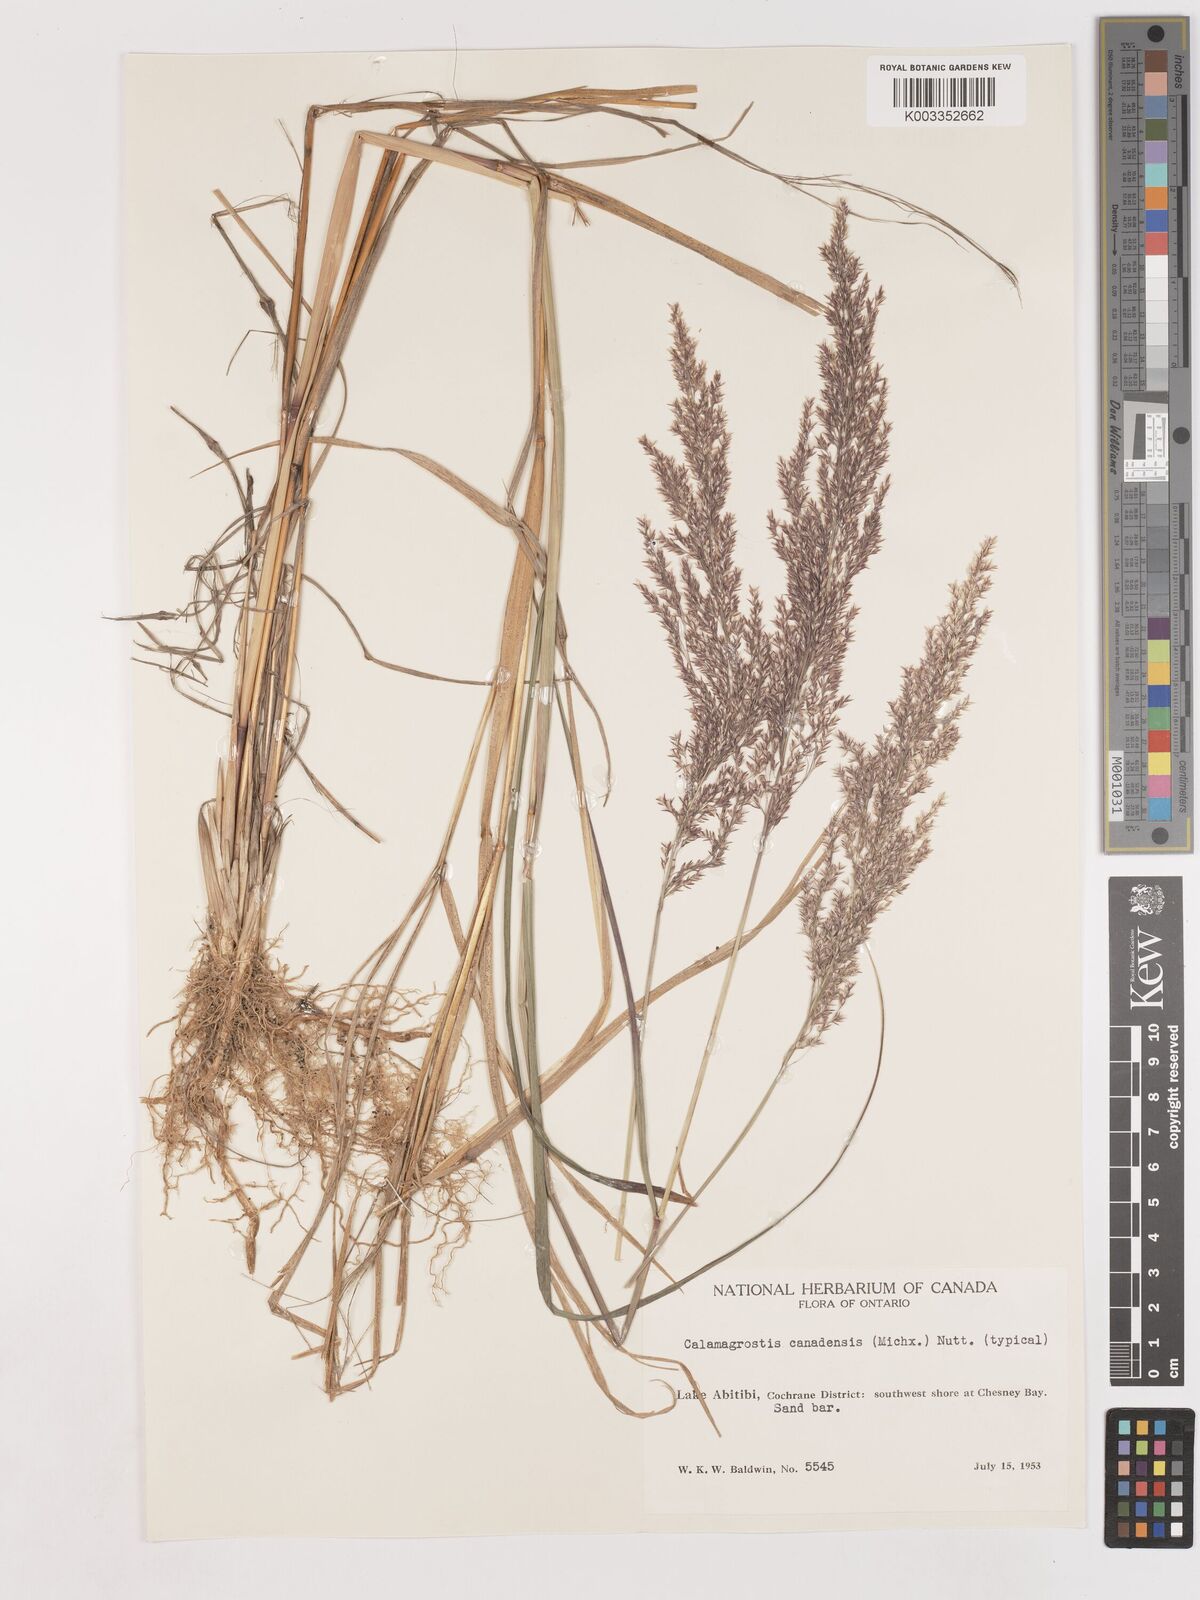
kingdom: Plantae
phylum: Tracheophyta
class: Liliopsida
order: Poales
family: Poaceae
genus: Calamagrostis
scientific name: Calamagrostis canadensis
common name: Canada bluejoint
